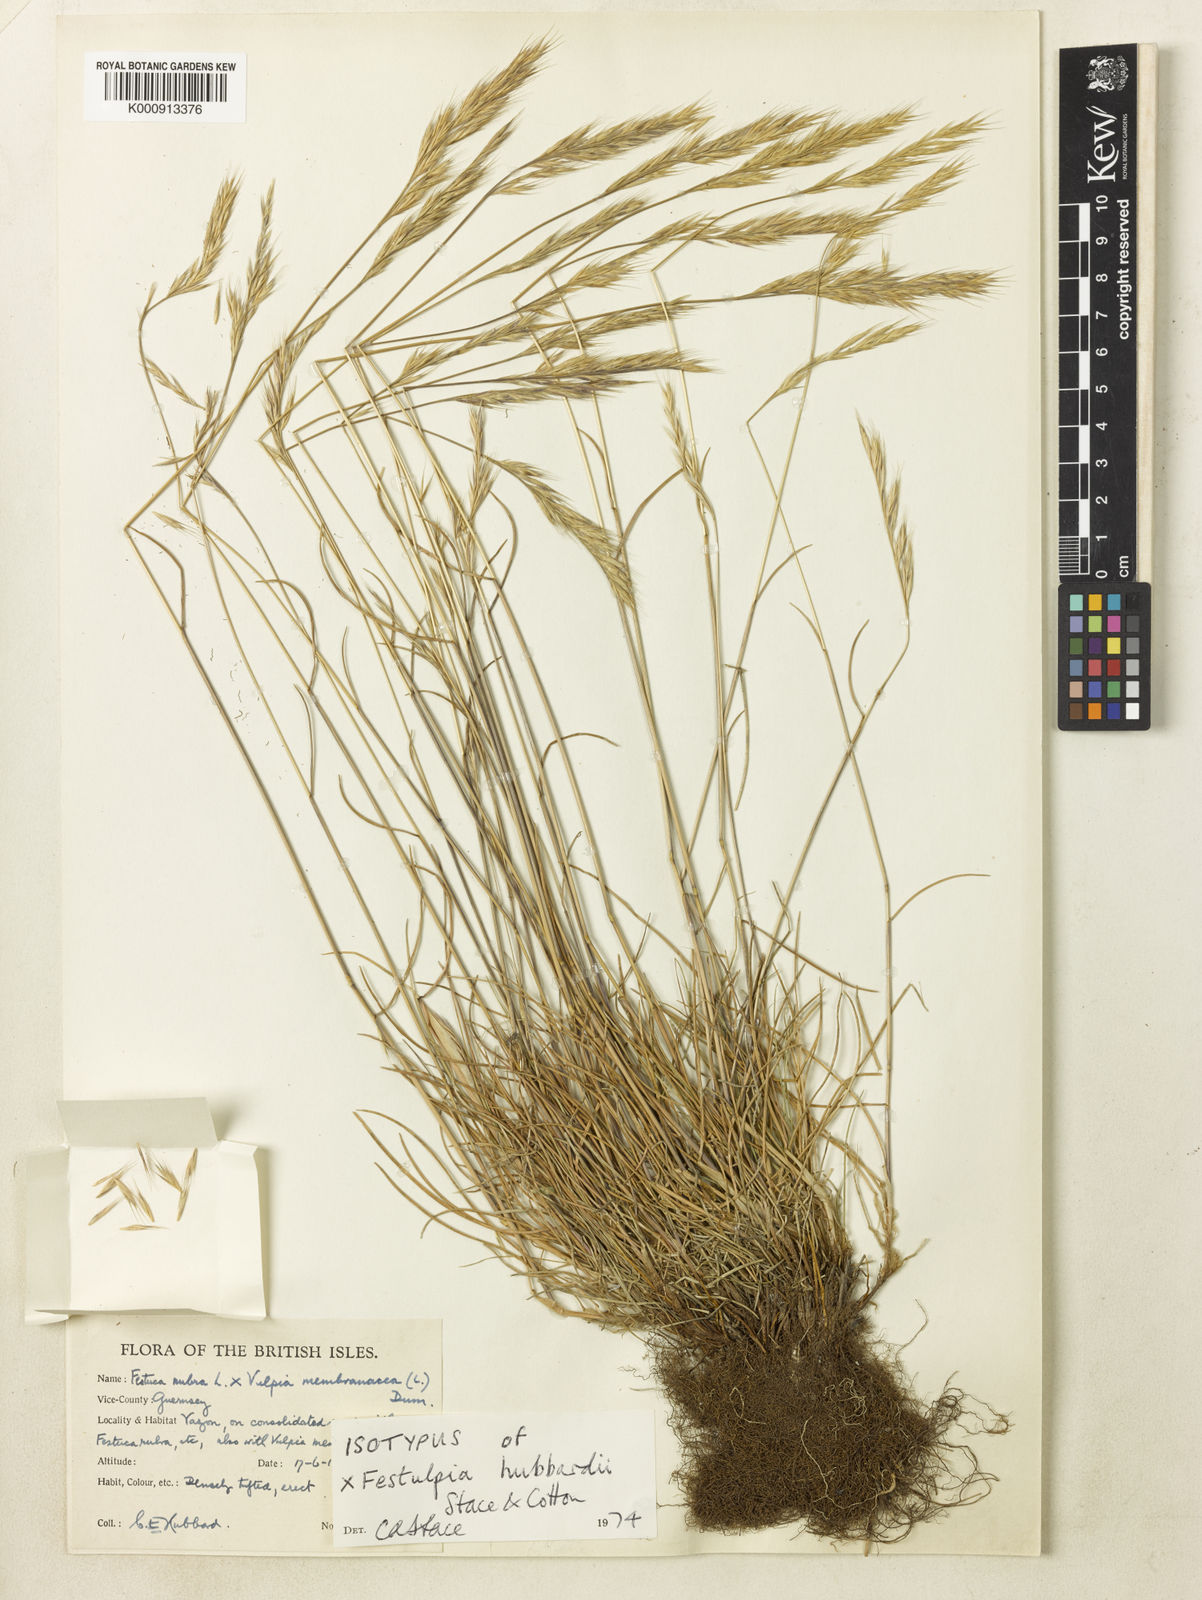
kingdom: Plantae
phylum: Tracheophyta
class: Liliopsida
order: Poales
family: Poaceae
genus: Festuca
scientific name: Festuca
